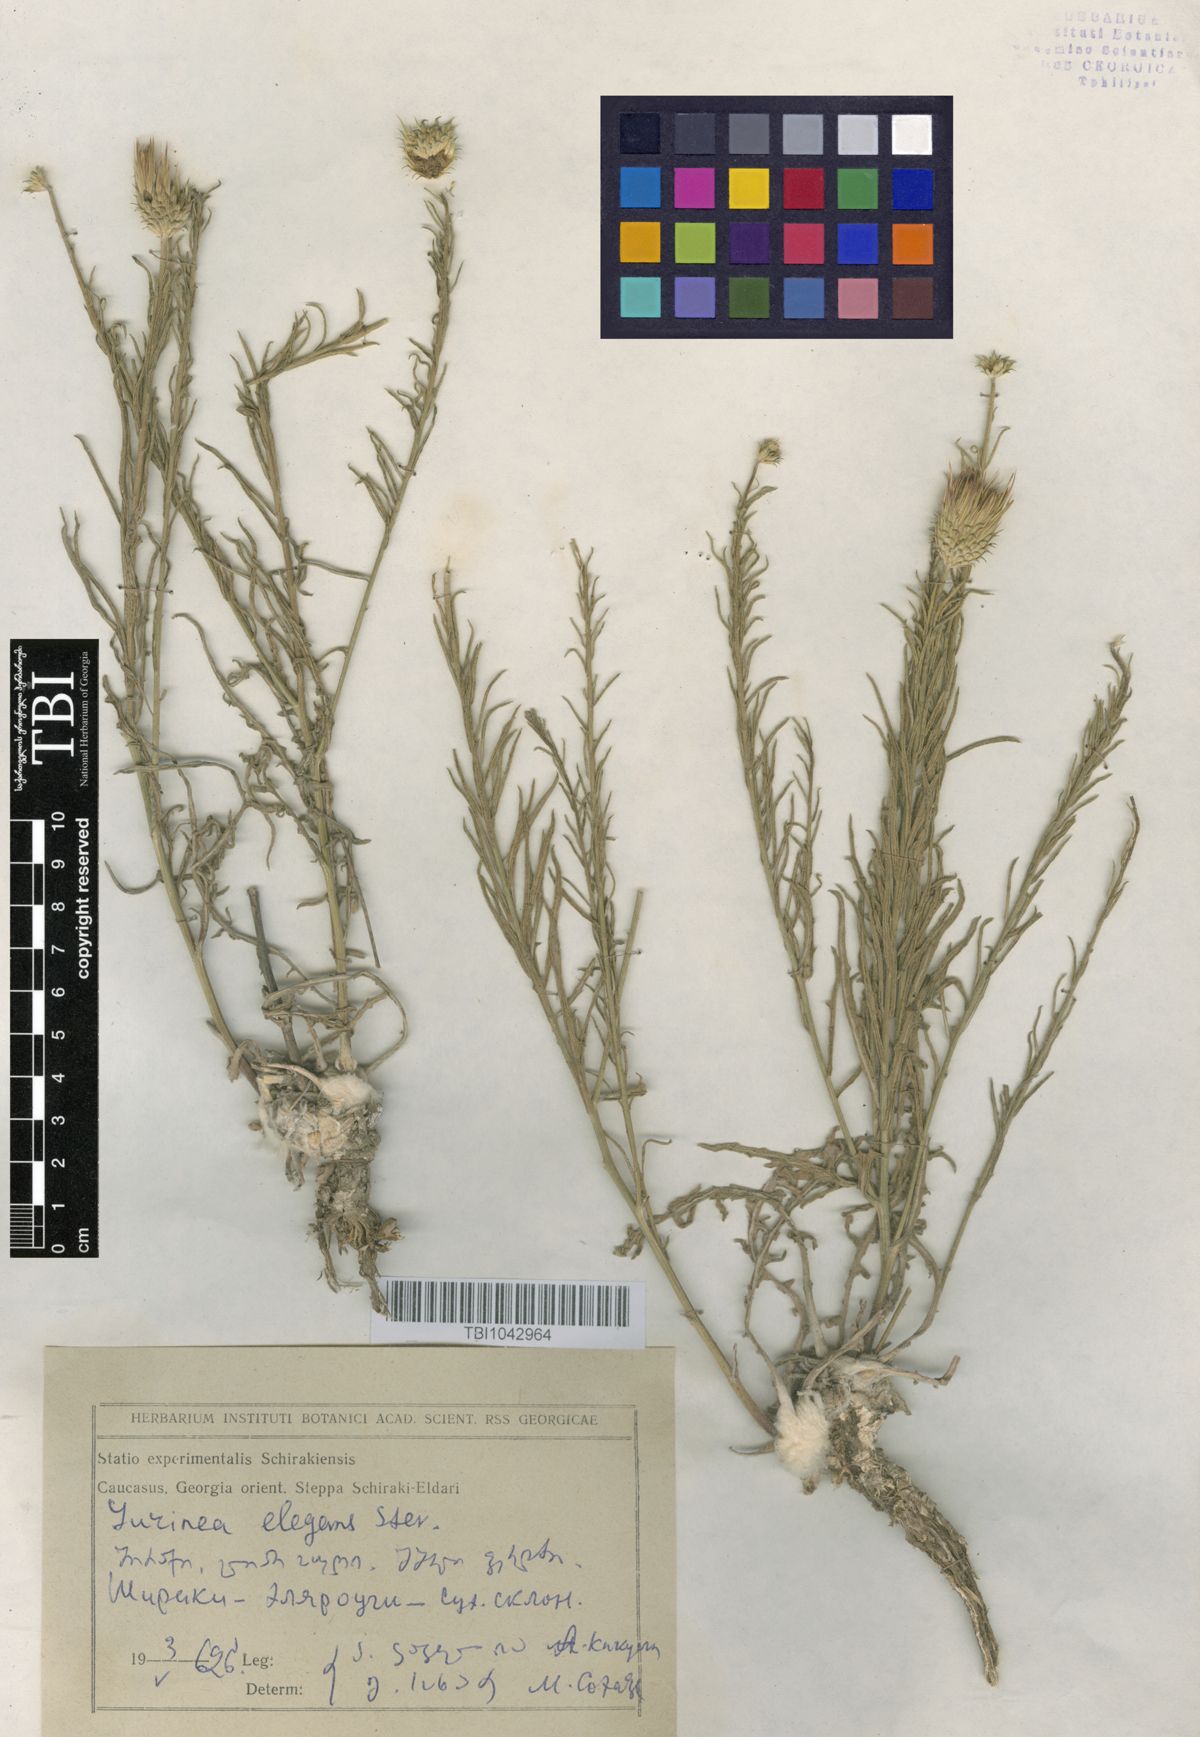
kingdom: Plantae
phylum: Tracheophyta
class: Magnoliopsida
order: Asterales
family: Asteraceae
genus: Jurinea
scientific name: Jurinea elegans
